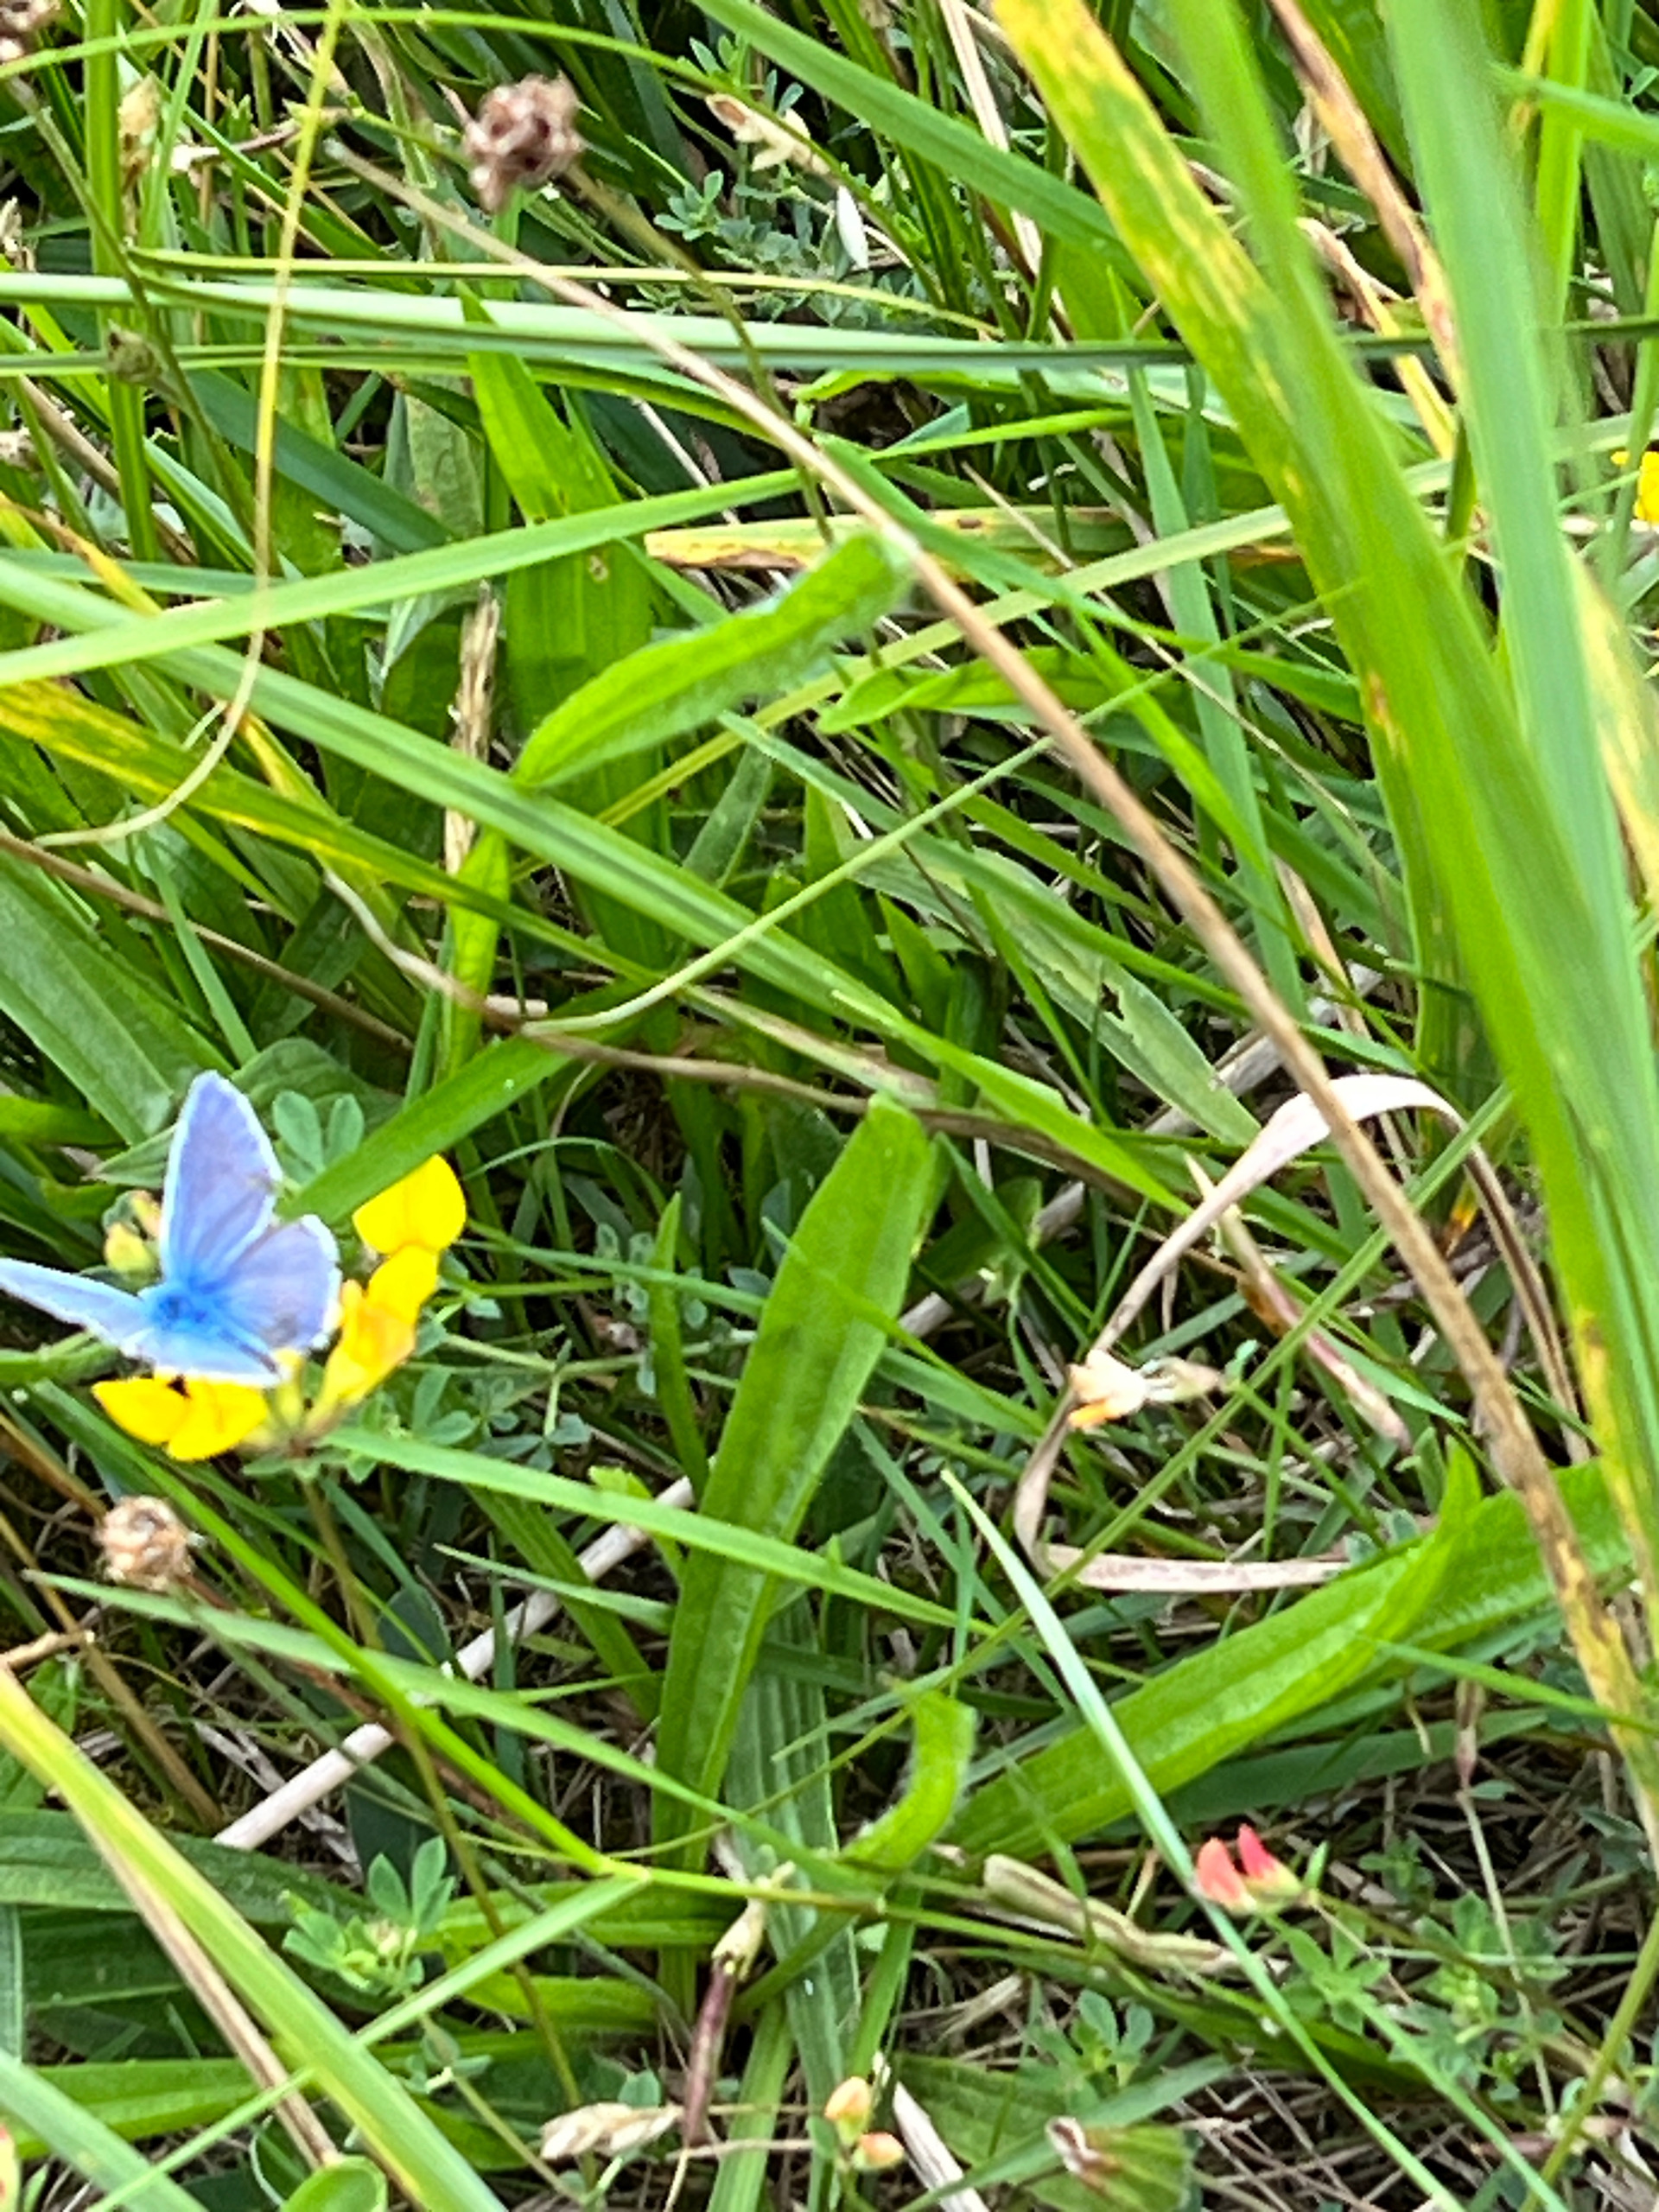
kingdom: Animalia
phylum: Arthropoda
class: Insecta
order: Lepidoptera
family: Lycaenidae
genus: Polyommatus
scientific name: Polyommatus icarus
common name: Almindelig blåfugl
